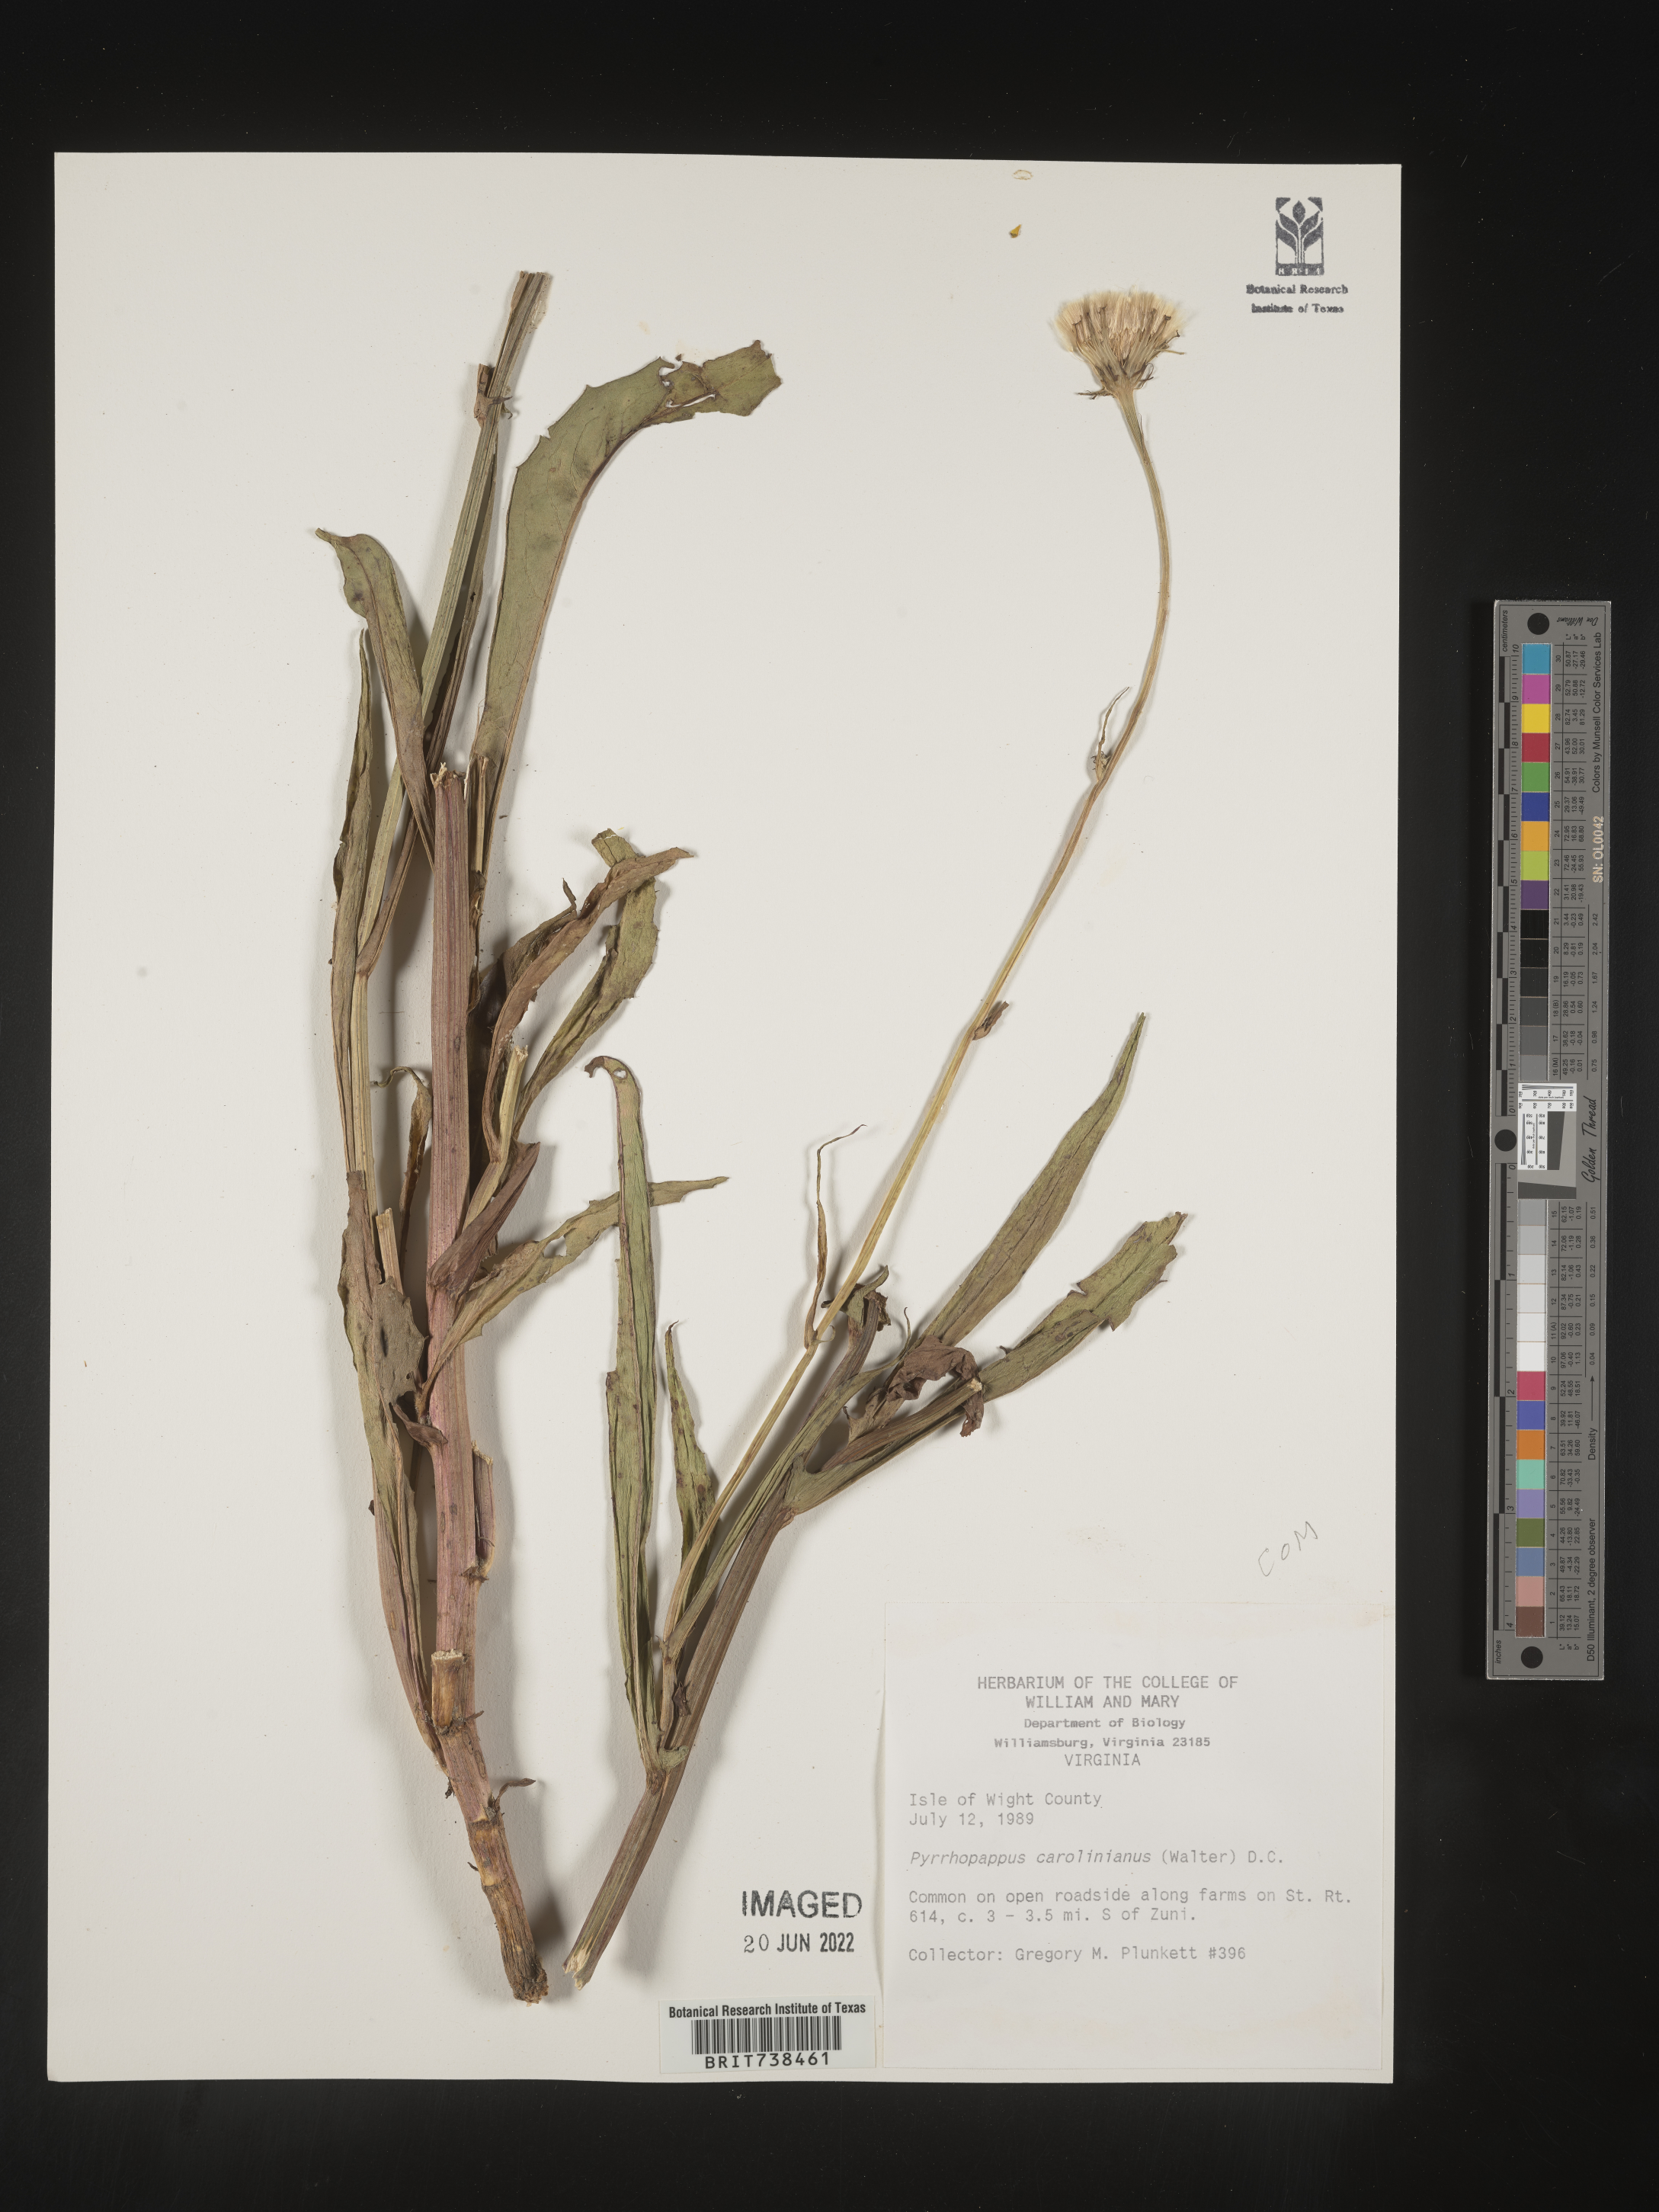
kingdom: Plantae
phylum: Tracheophyta
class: Magnoliopsida
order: Asterales
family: Asteraceae
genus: Pyrrhopappus
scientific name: Pyrrhopappus carolinianus
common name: Carolina desert-chicory
